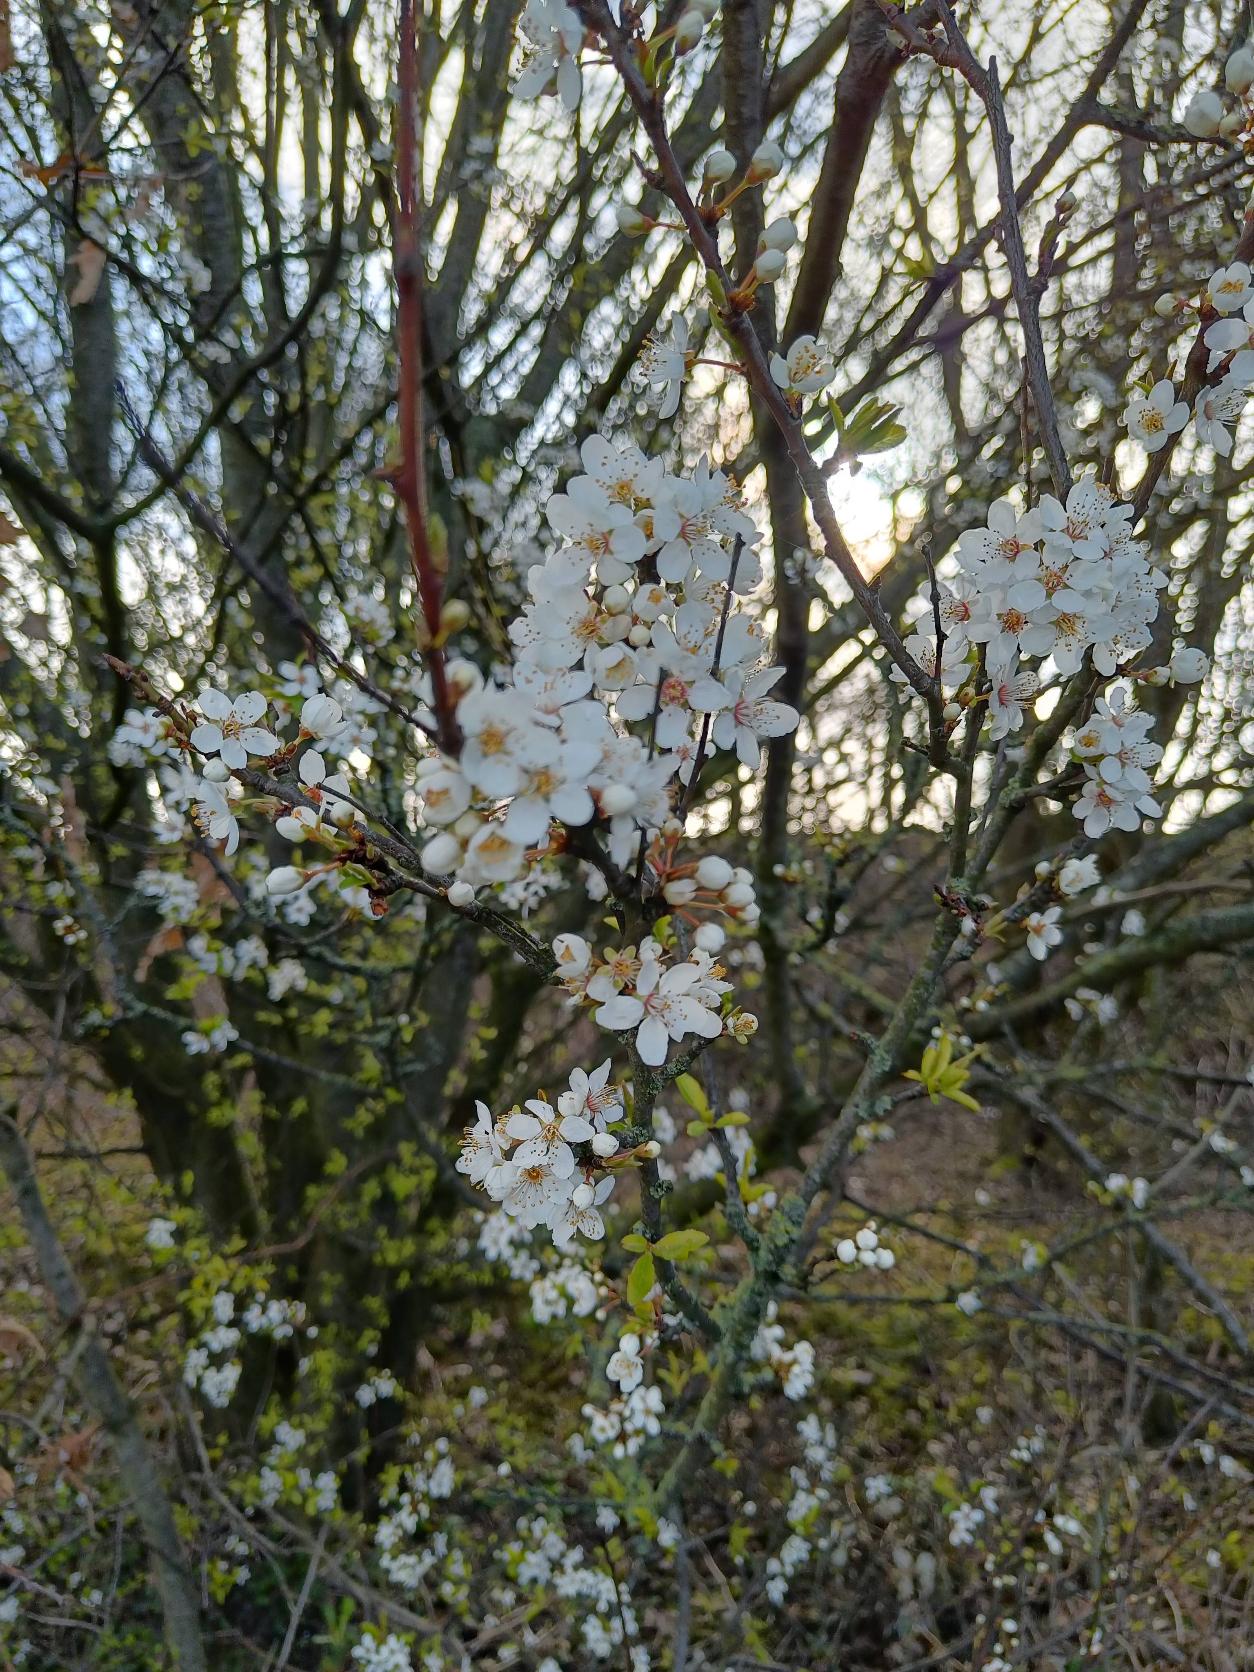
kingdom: Plantae
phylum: Tracheophyta
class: Magnoliopsida
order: Rosales
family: Rosaceae
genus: Prunus
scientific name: Prunus cerasifera
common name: Mirabel
